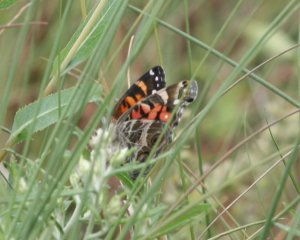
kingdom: Animalia
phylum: Arthropoda
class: Insecta
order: Lepidoptera
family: Nymphalidae
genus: Vanessa
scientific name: Vanessa virginiensis
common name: American Lady
